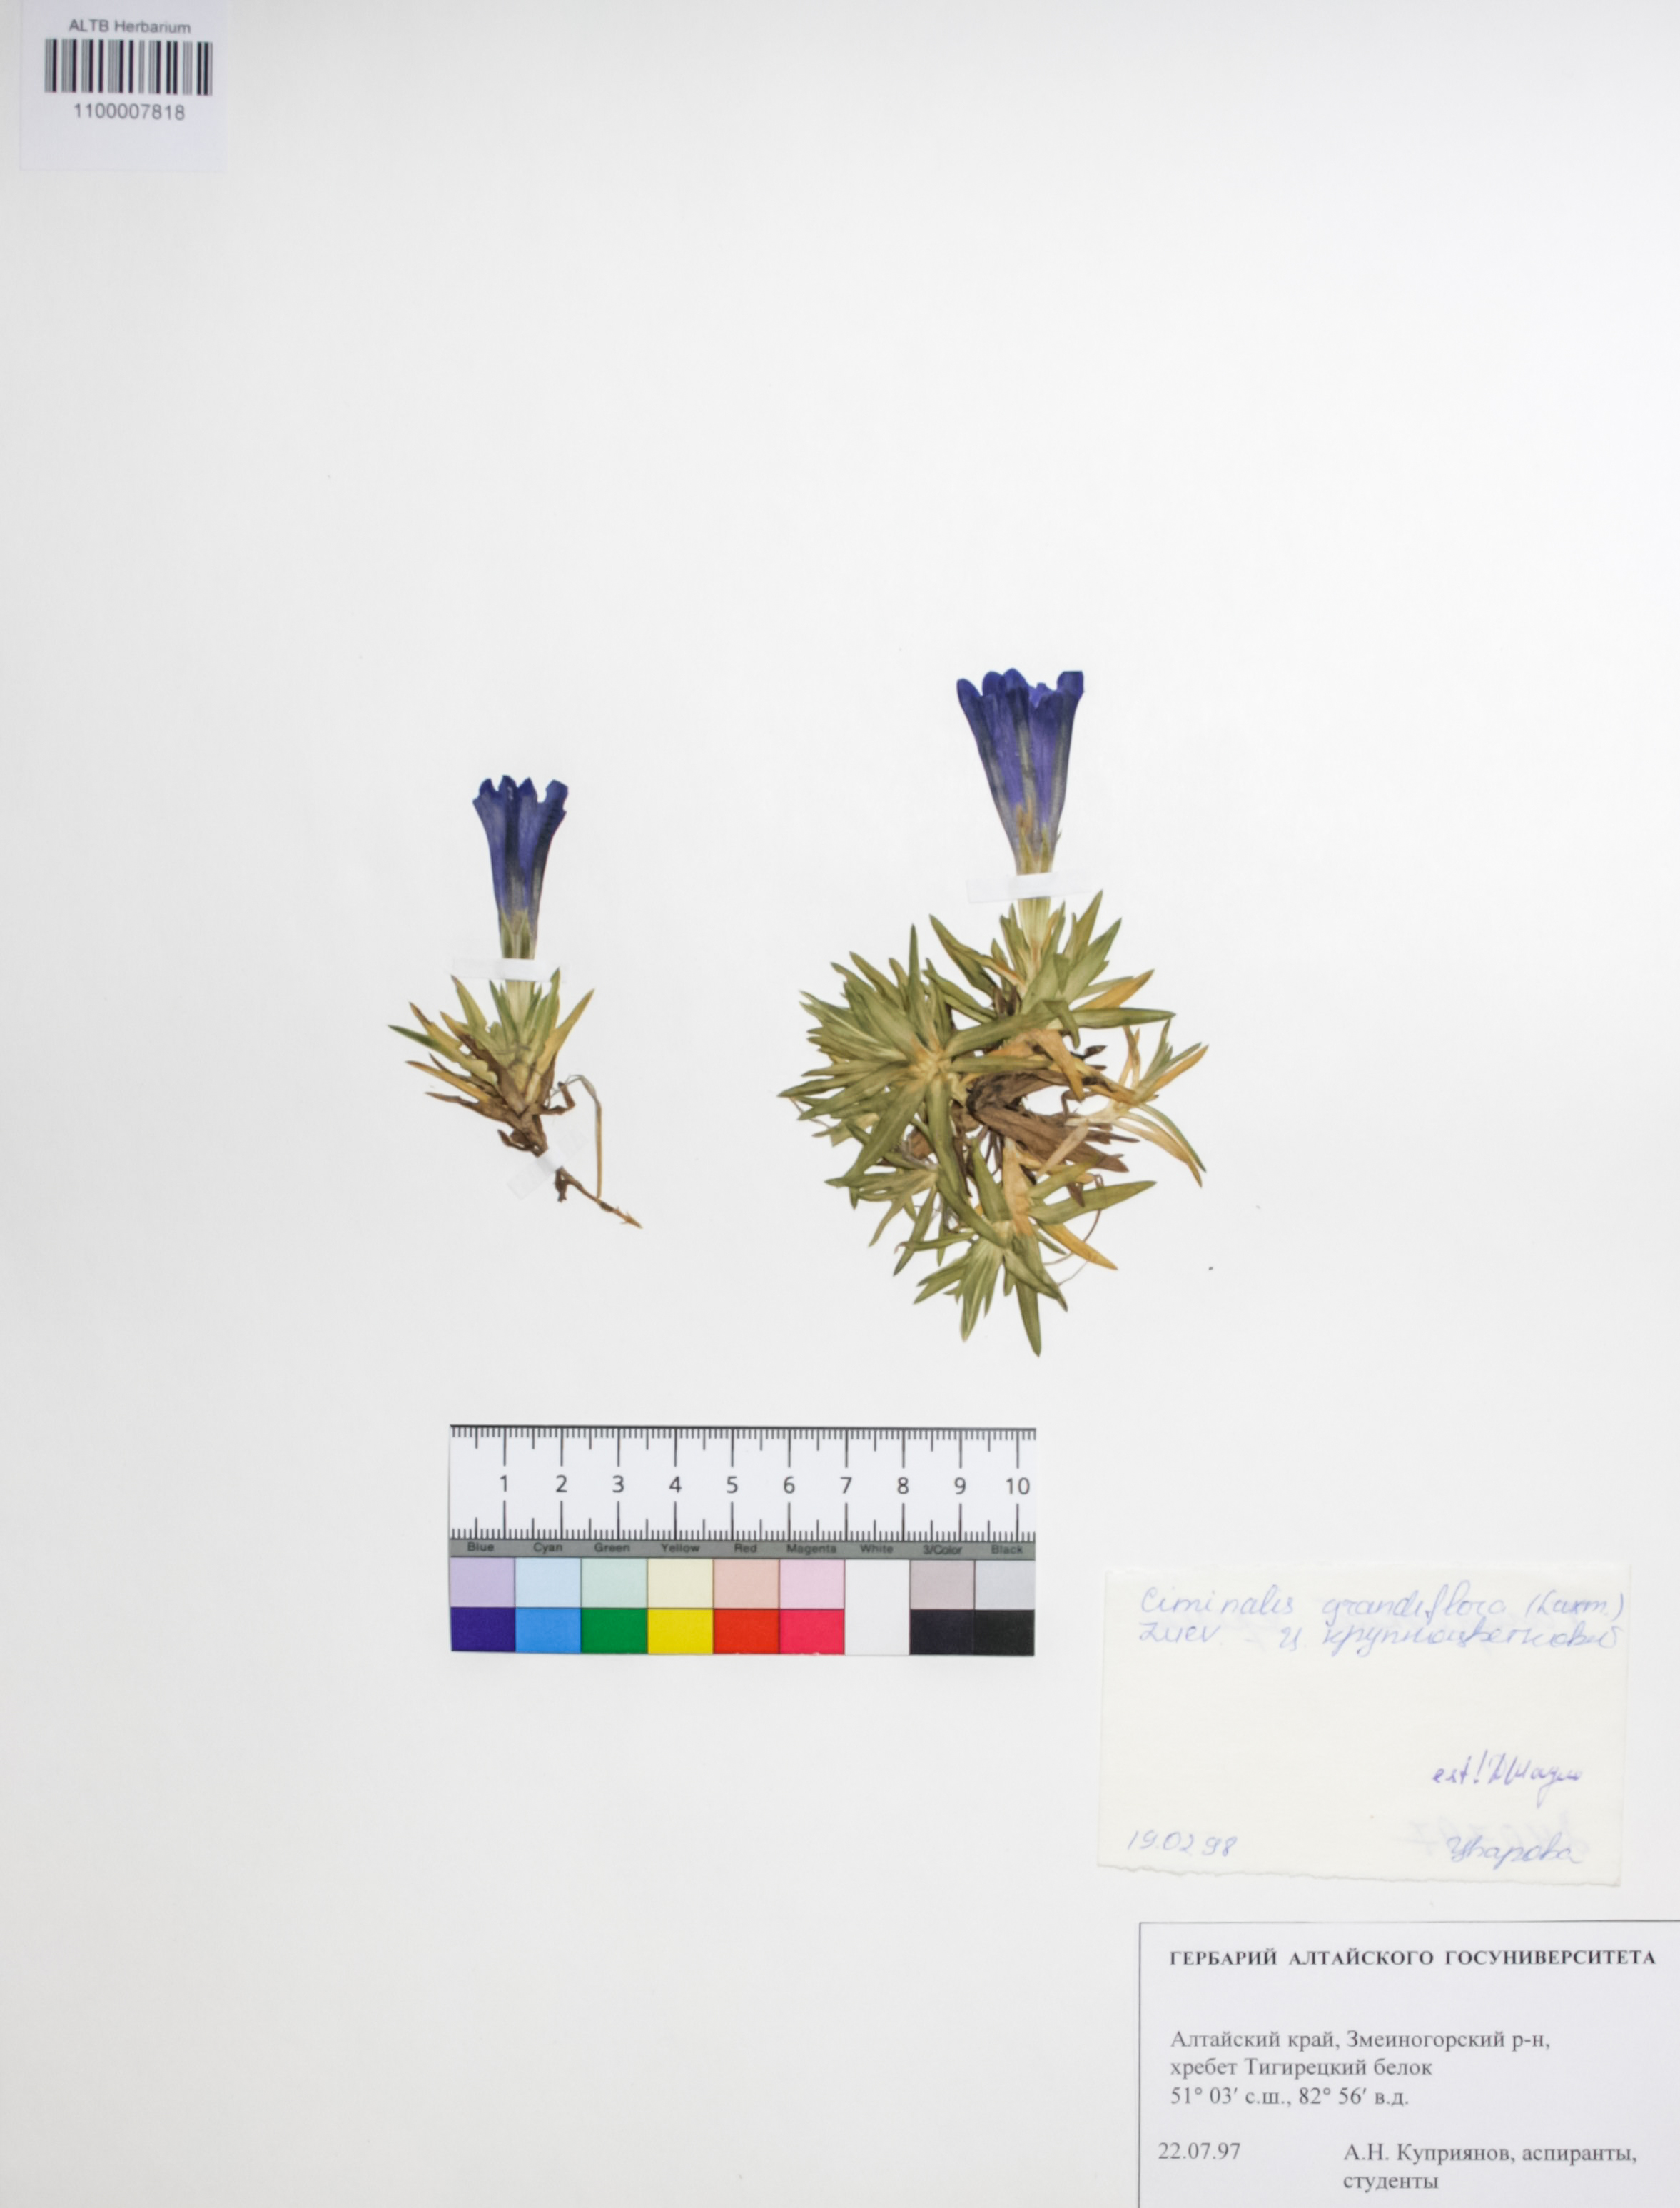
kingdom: Plantae
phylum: Tracheophyta
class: Magnoliopsida
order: Gentianales
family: Gentianaceae
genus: Gentiana
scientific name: Gentiana grandiflora
